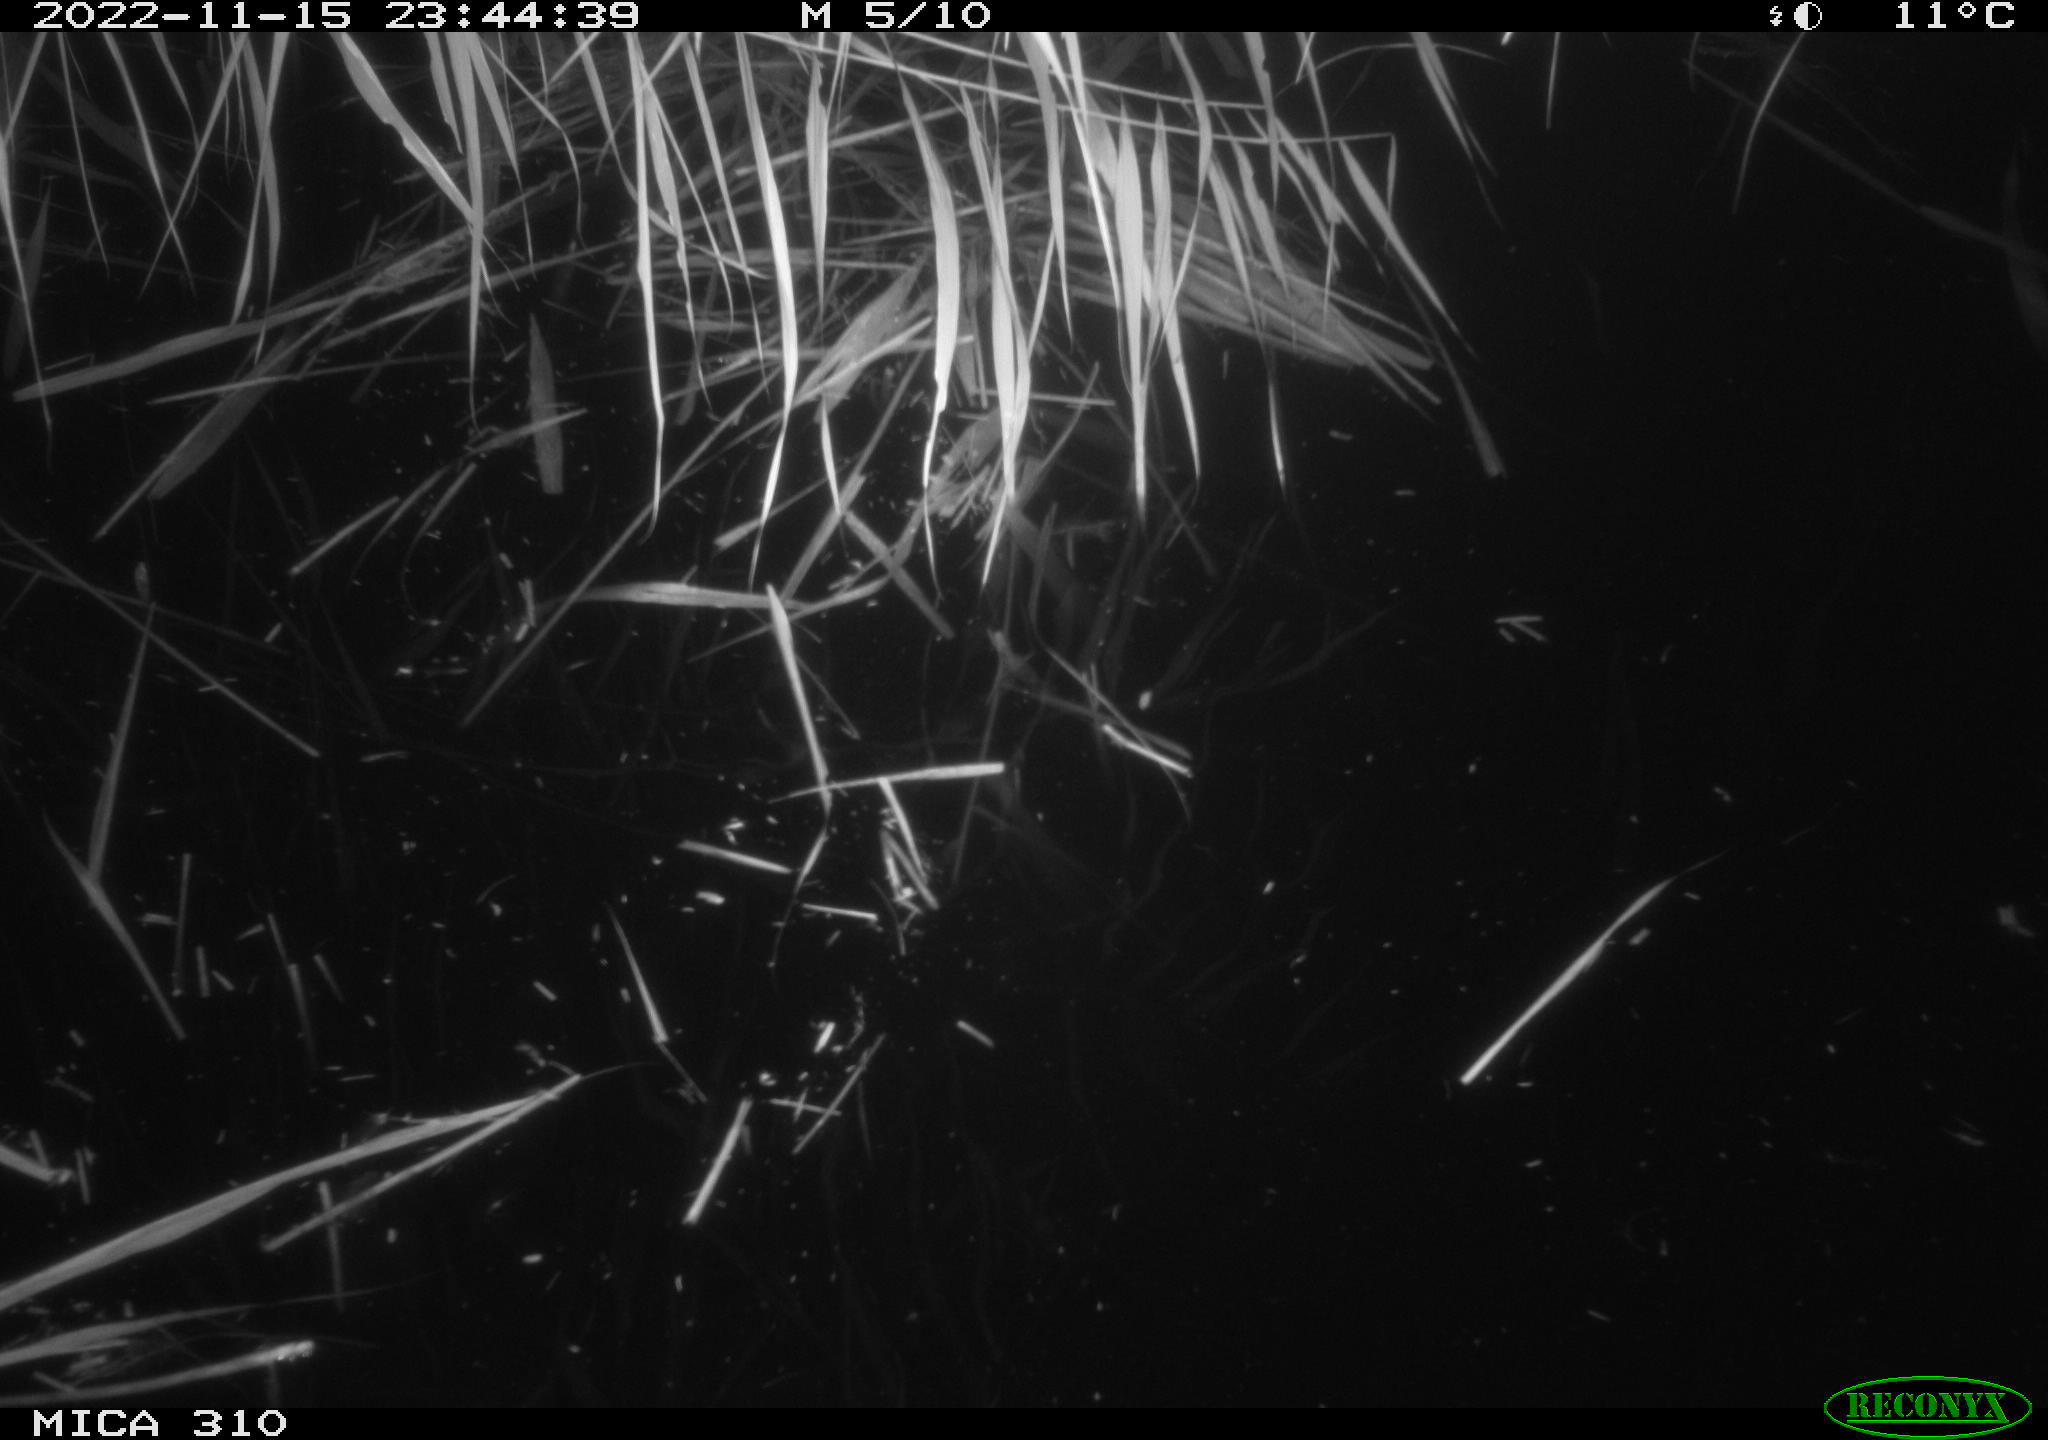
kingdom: Animalia
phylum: Chordata
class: Mammalia
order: Rodentia
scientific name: Rodentia
